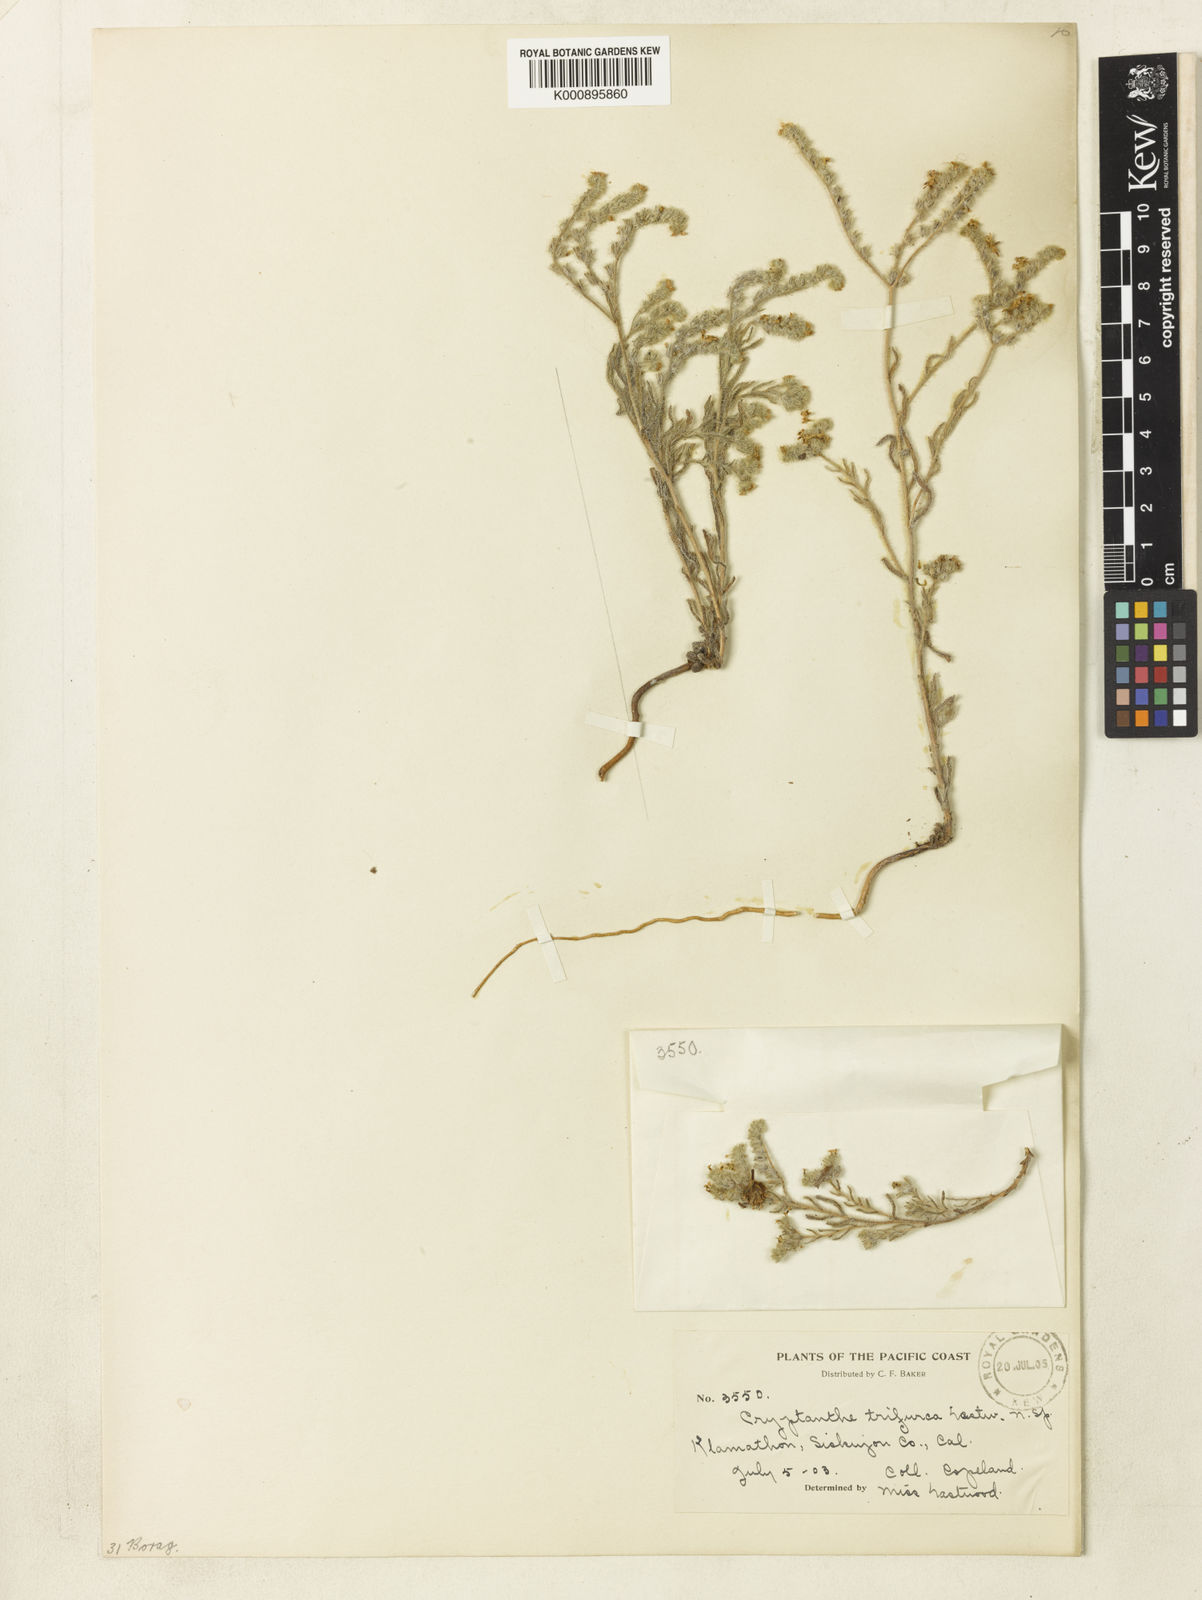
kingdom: Plantae
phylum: Tracheophyta
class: Magnoliopsida
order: Boraginales
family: Boraginaceae
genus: Cryptantha
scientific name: Cryptantha intermedia
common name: Clearwater cryptantha
